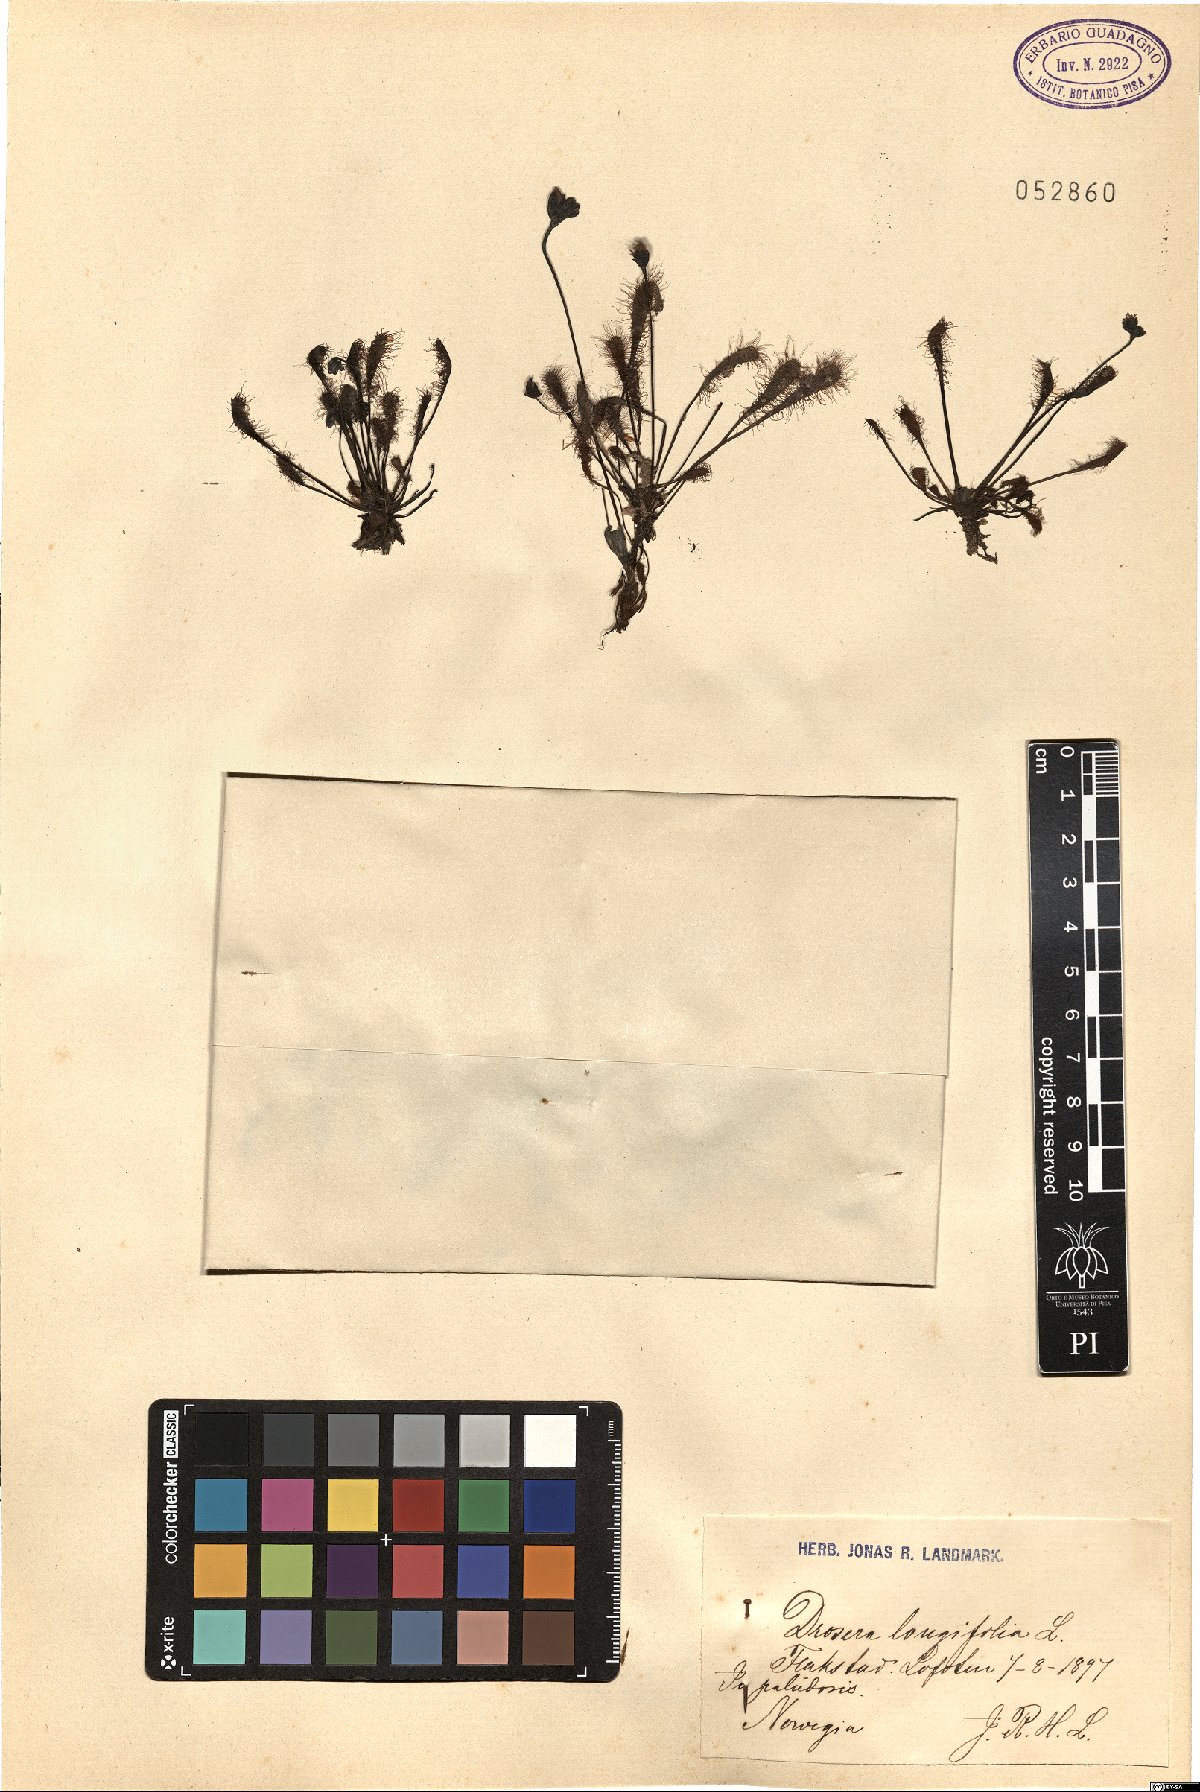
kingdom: Plantae
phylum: Tracheophyta
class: Magnoliopsida
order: Caryophyllales
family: Droseraceae
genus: Drosera
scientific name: Drosera anglica
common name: Great sundew
